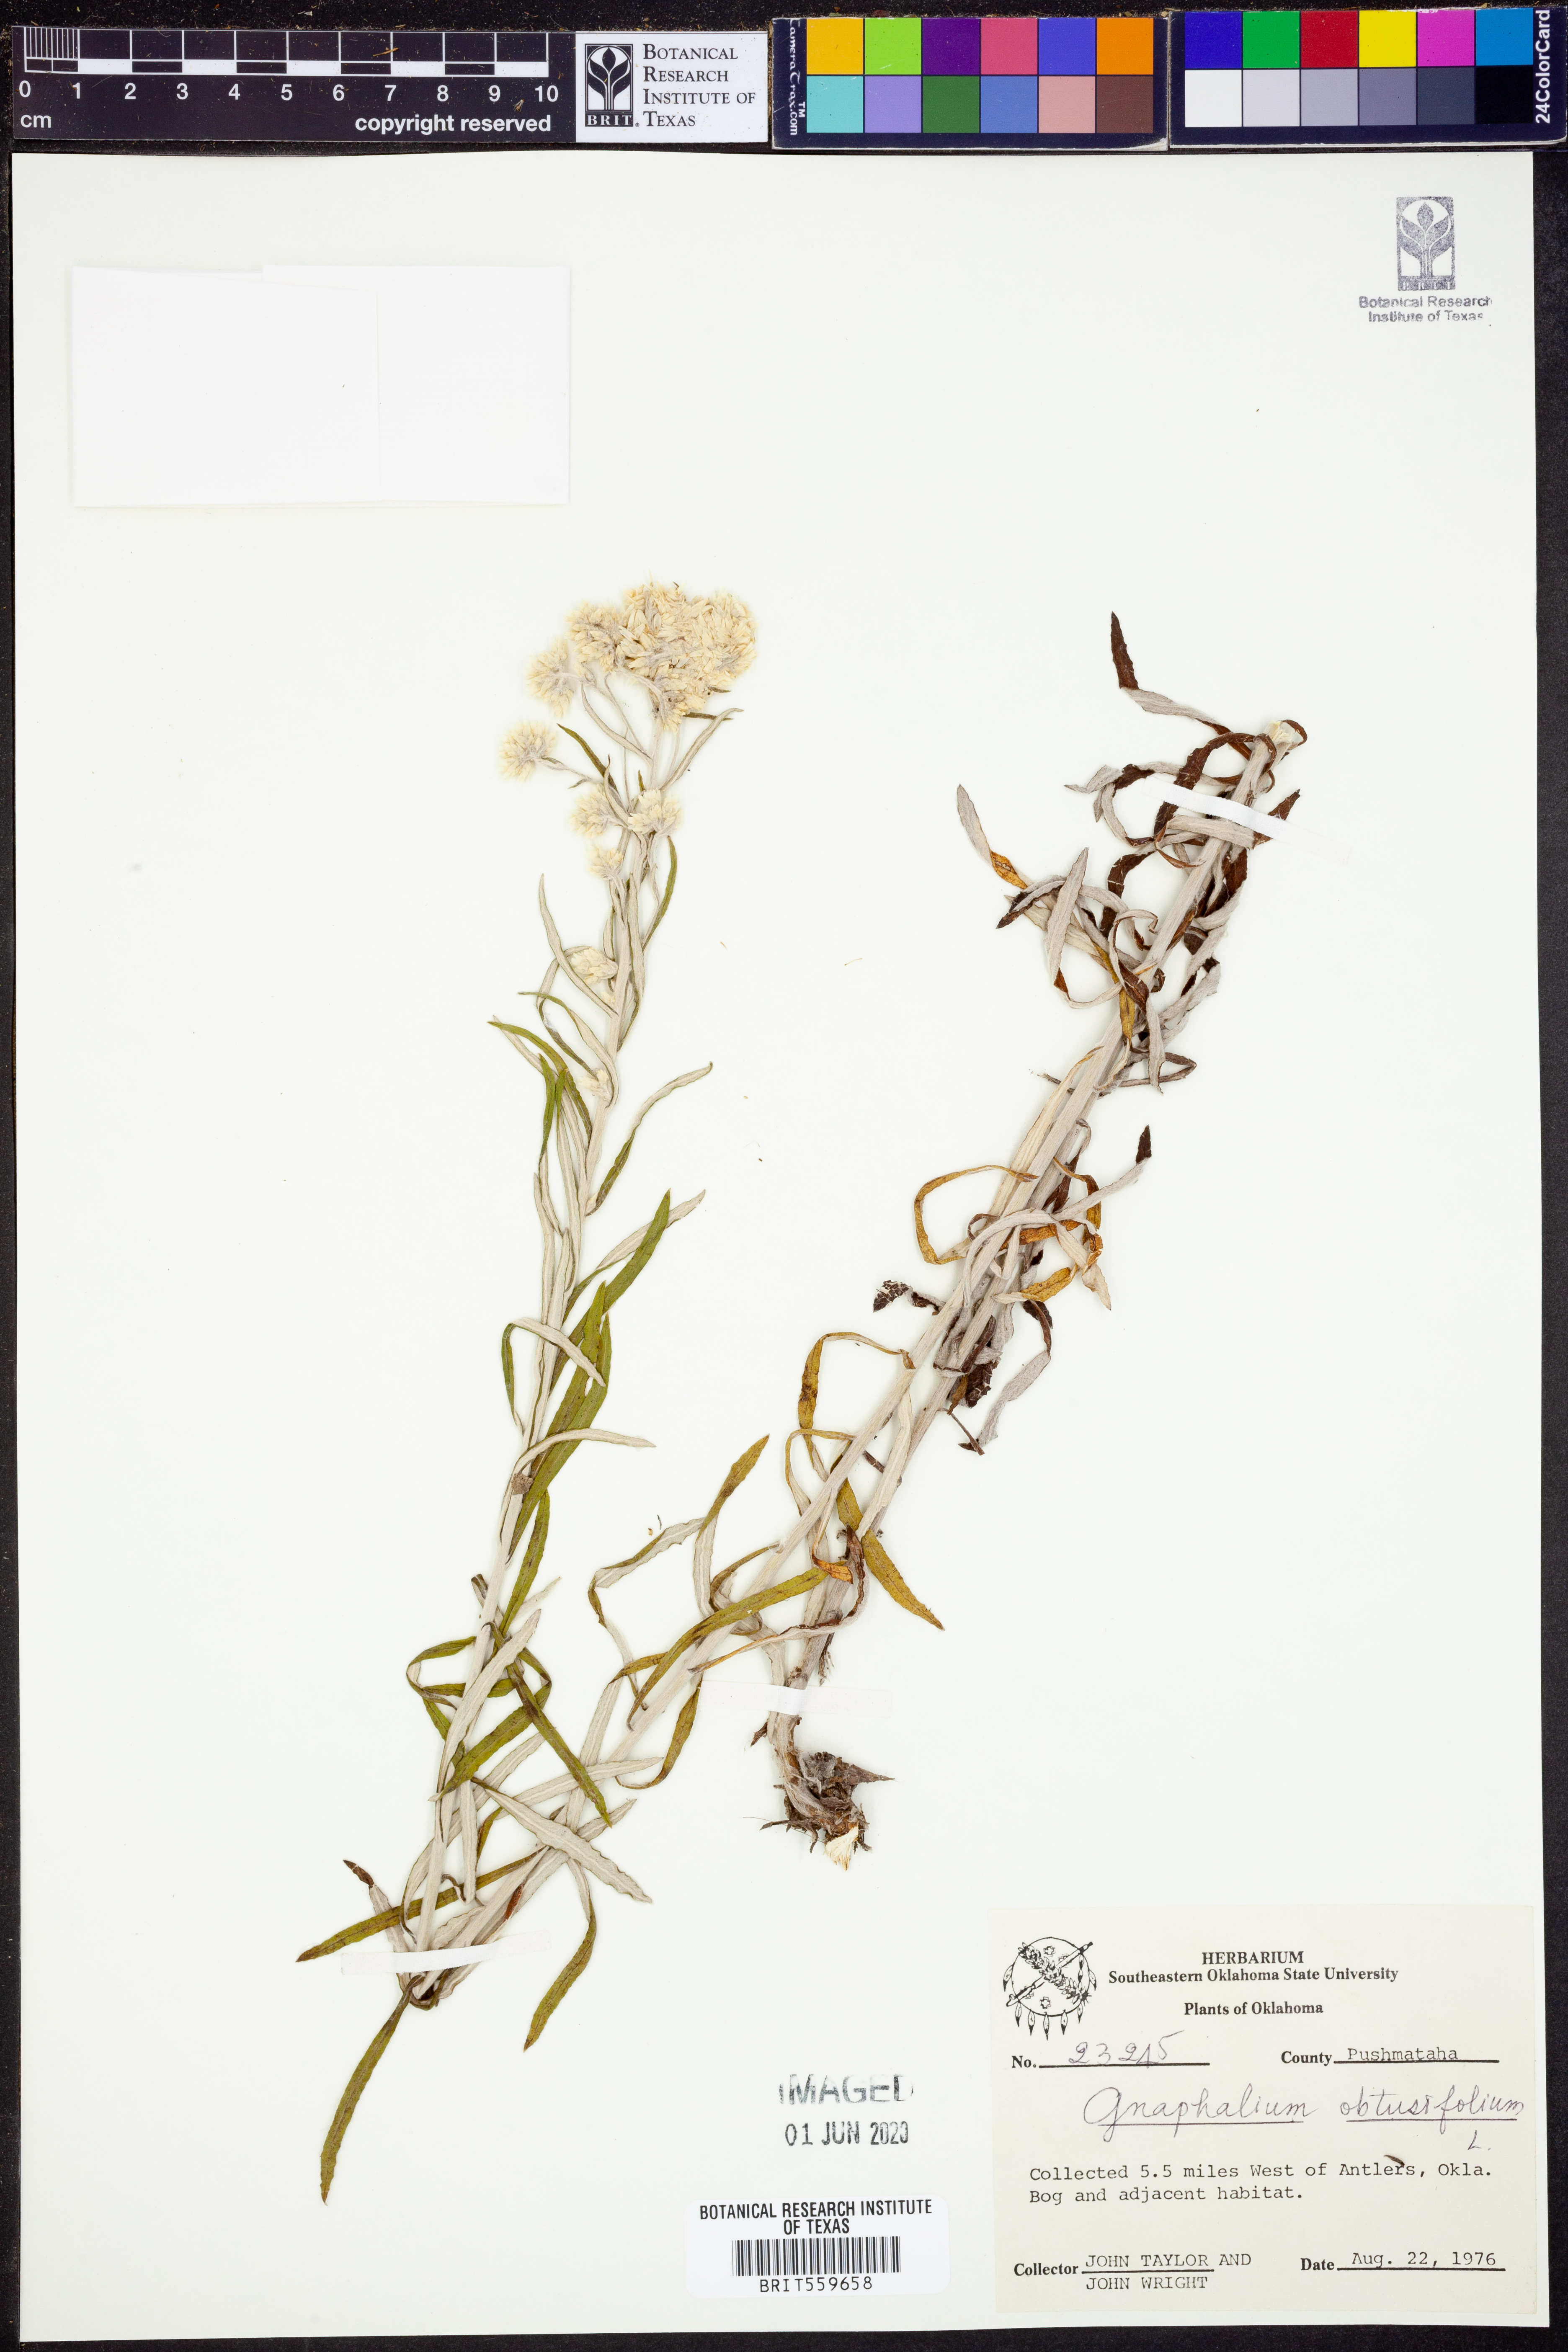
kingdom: Plantae
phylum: Tracheophyta
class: Magnoliopsida
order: Asterales
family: Asteraceae
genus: Pseudognaphalium
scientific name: Pseudognaphalium obtusifolium
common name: Eastern rabbit-tobacco
